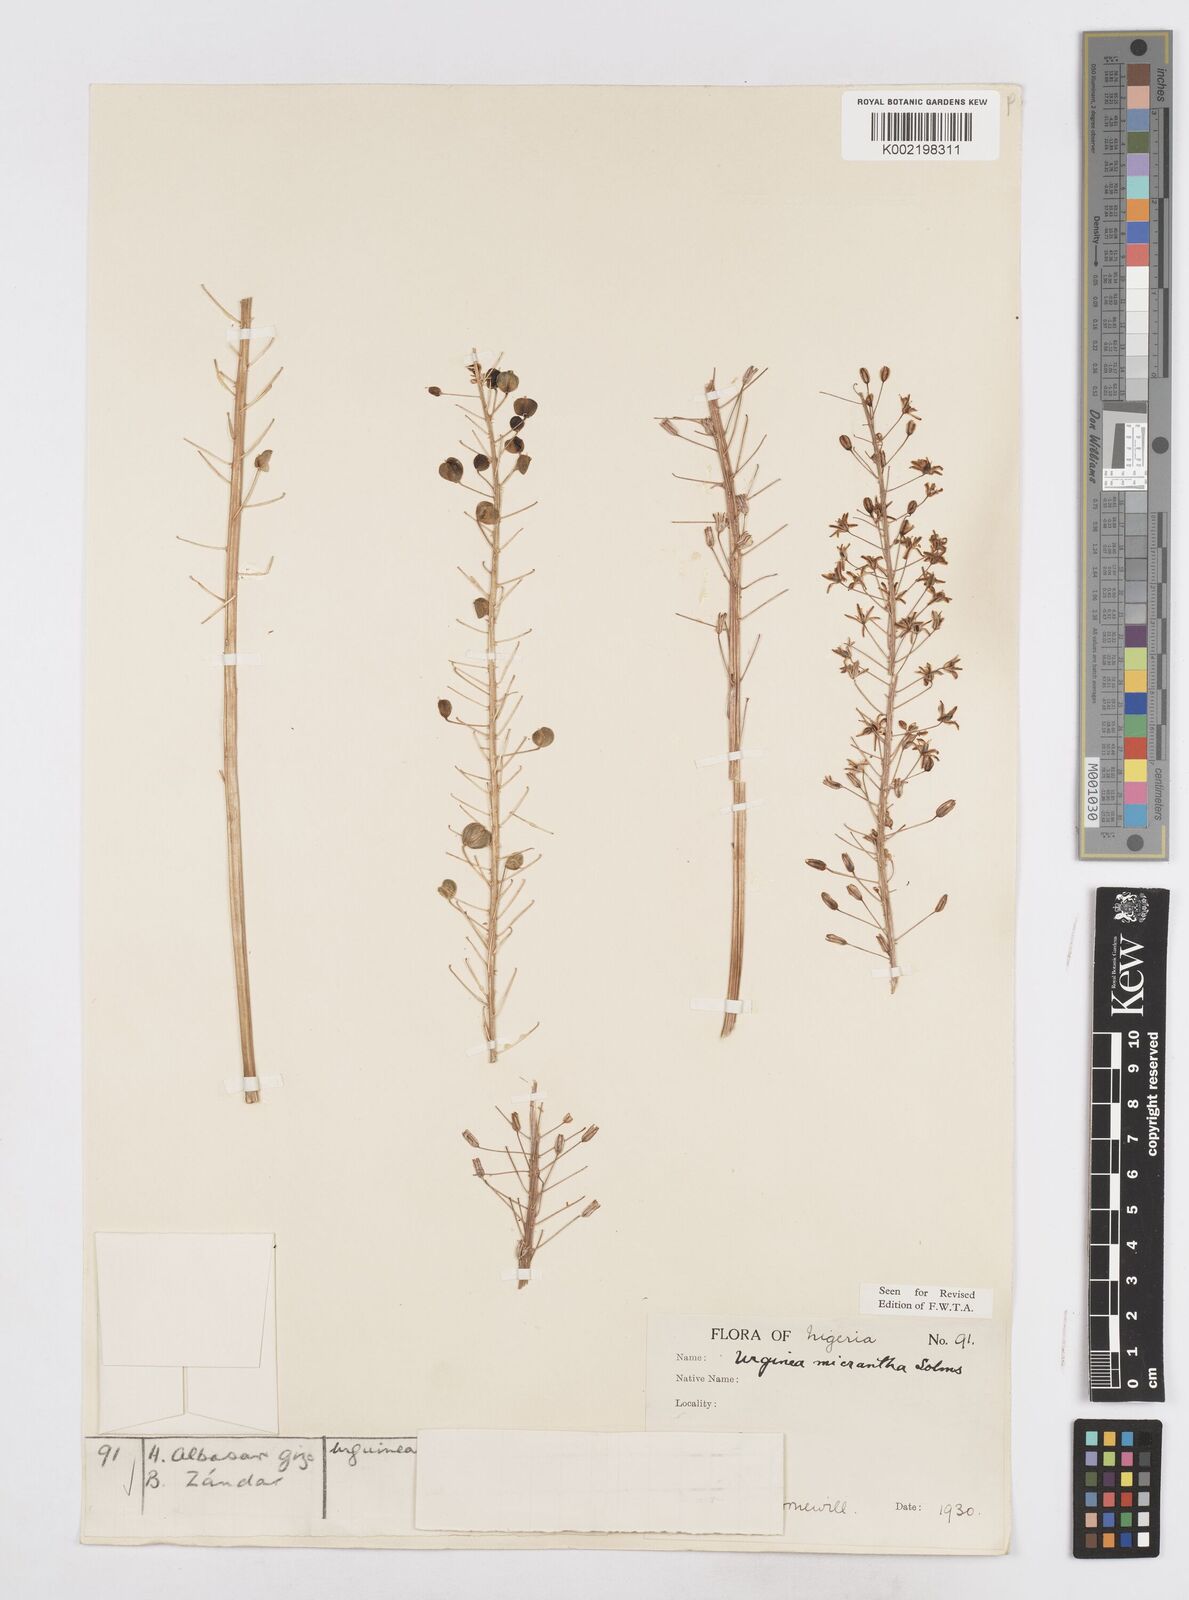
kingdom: Plantae
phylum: Tracheophyta
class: Liliopsida
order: Asparagales
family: Asparagaceae
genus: Drimia
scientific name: Drimia altissima
